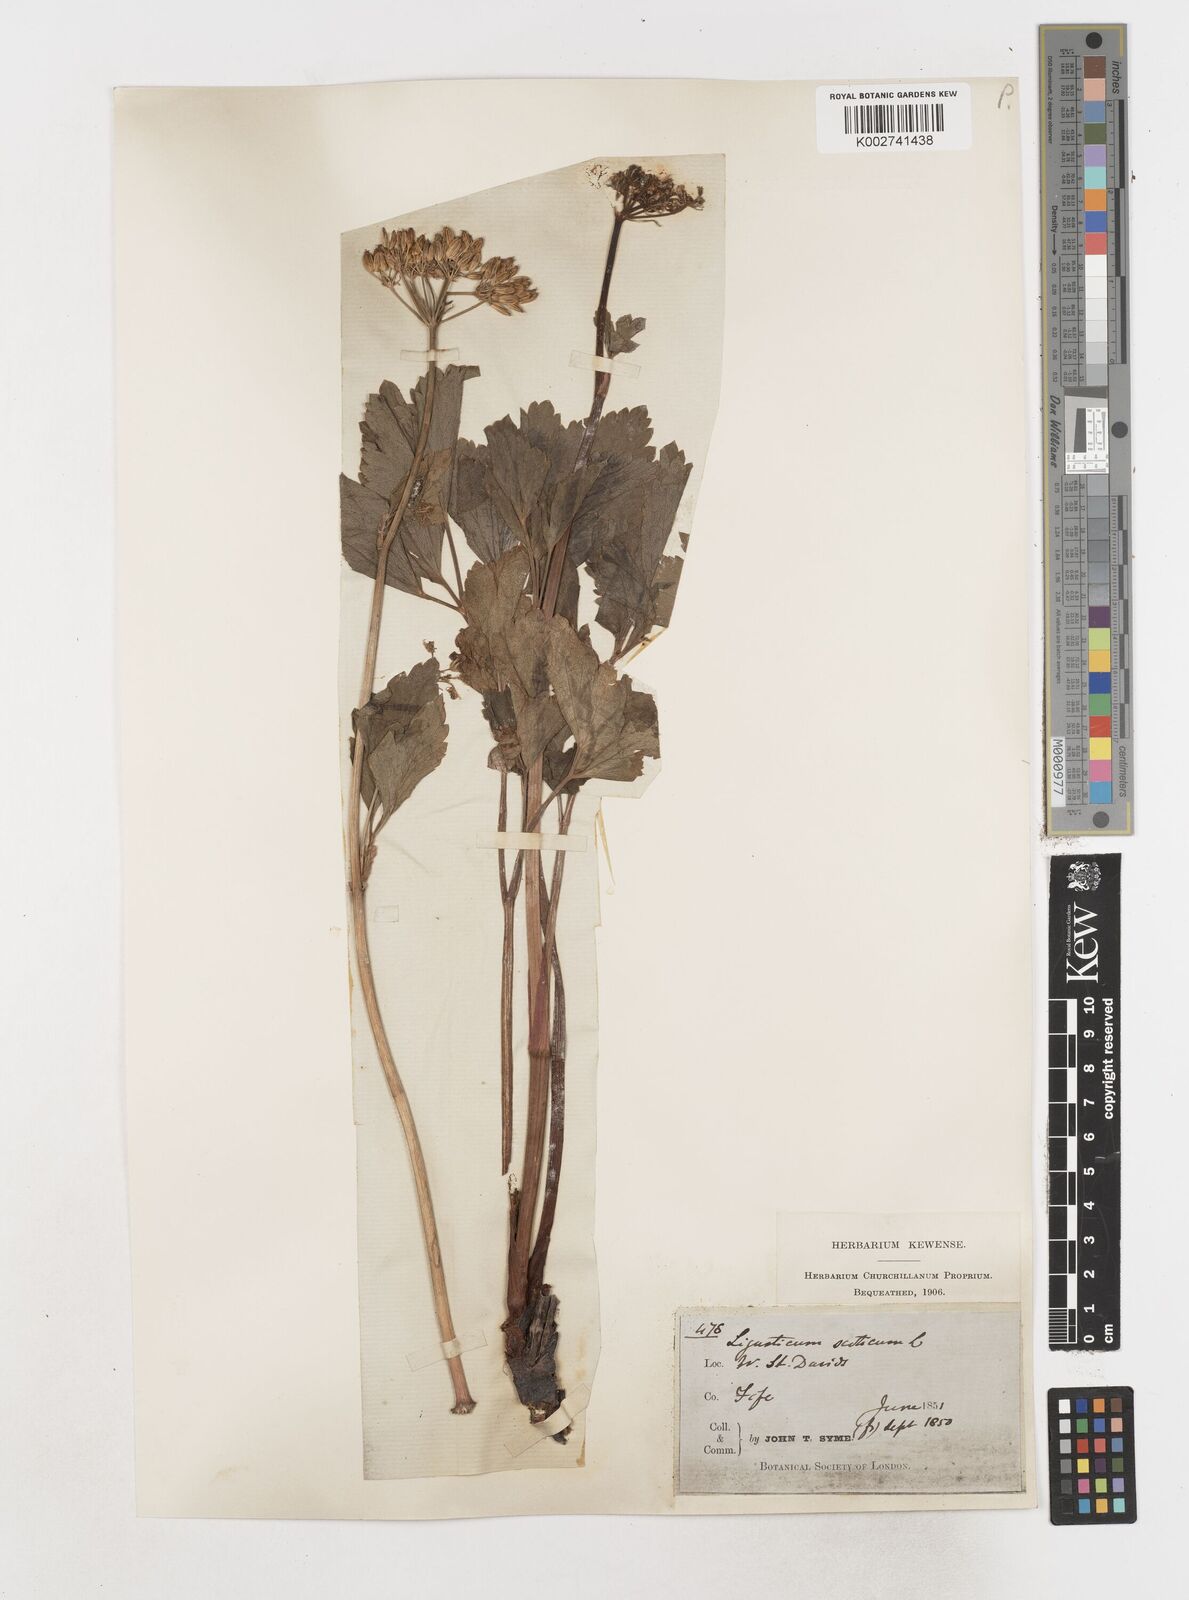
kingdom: Plantae
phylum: Tracheophyta
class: Magnoliopsida
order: Apiales
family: Apiaceae
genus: Ligusticum
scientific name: Ligusticum scothicum
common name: Beach lovage
